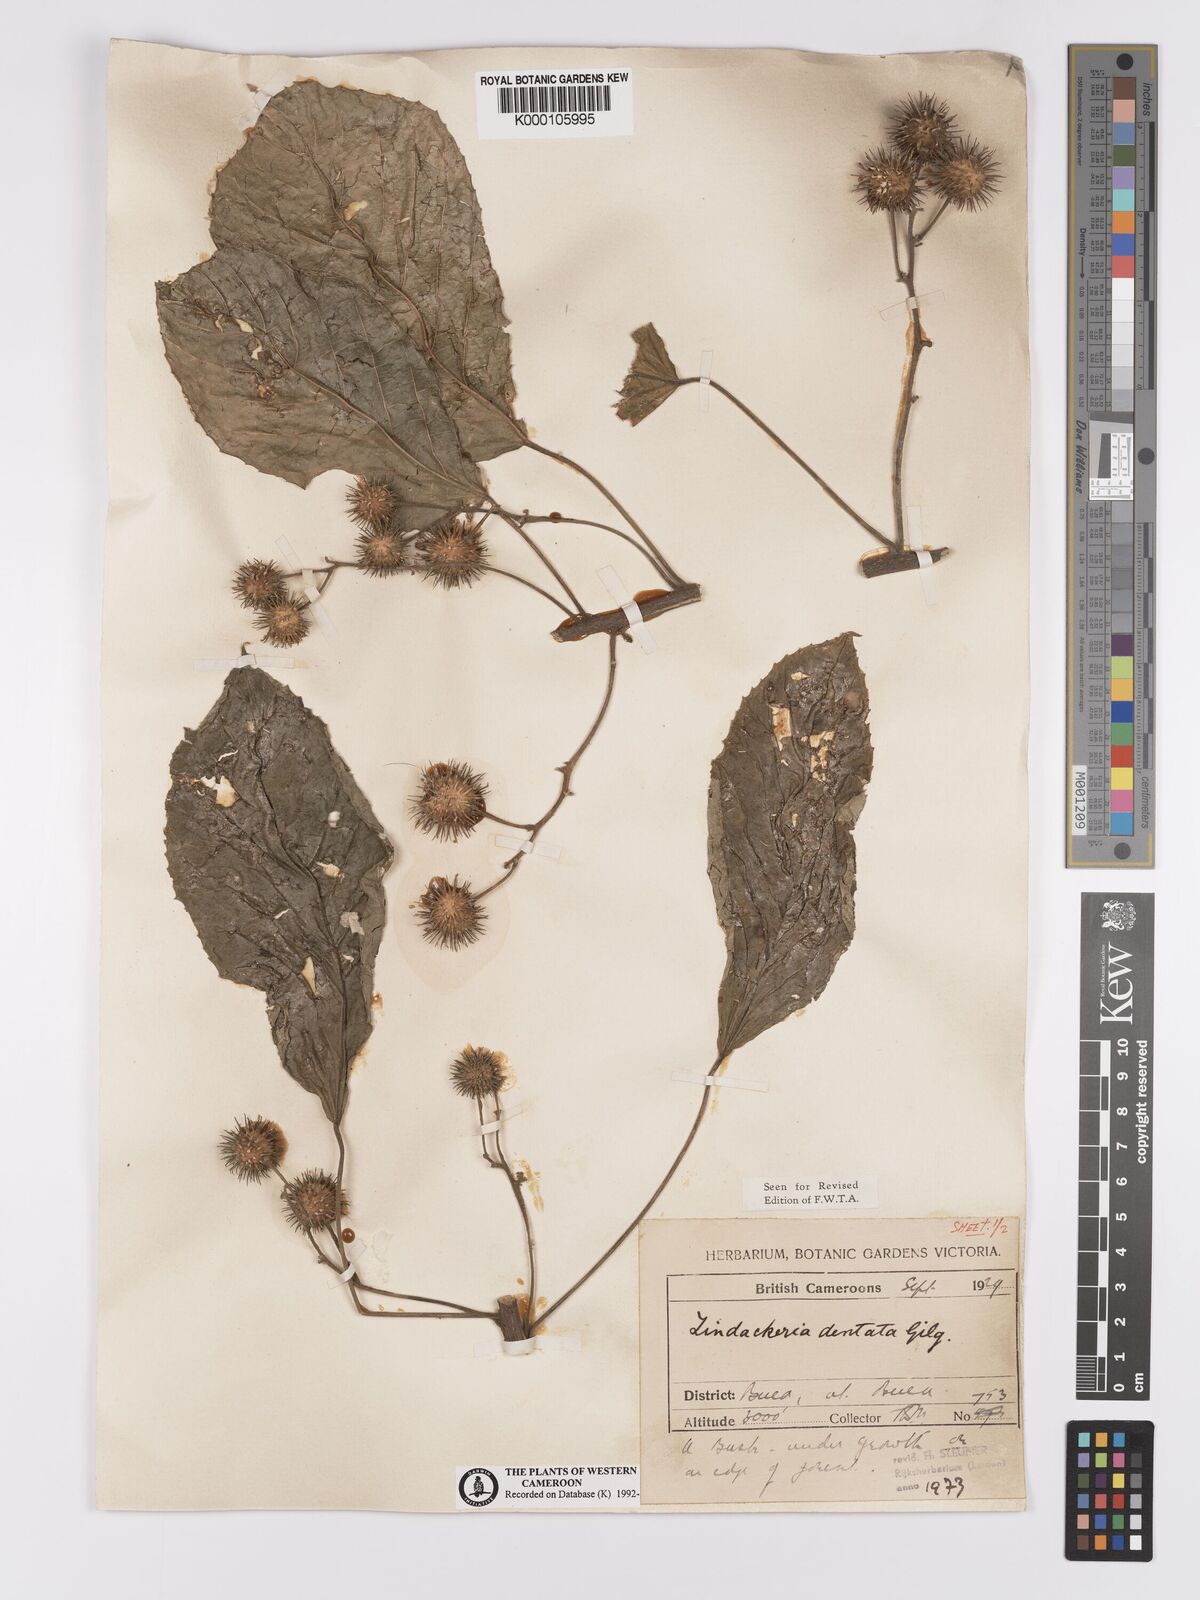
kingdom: Plantae
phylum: Tracheophyta
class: Magnoliopsida
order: Malpighiales
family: Achariaceae
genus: Lindackeria
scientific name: Lindackeria dentata
